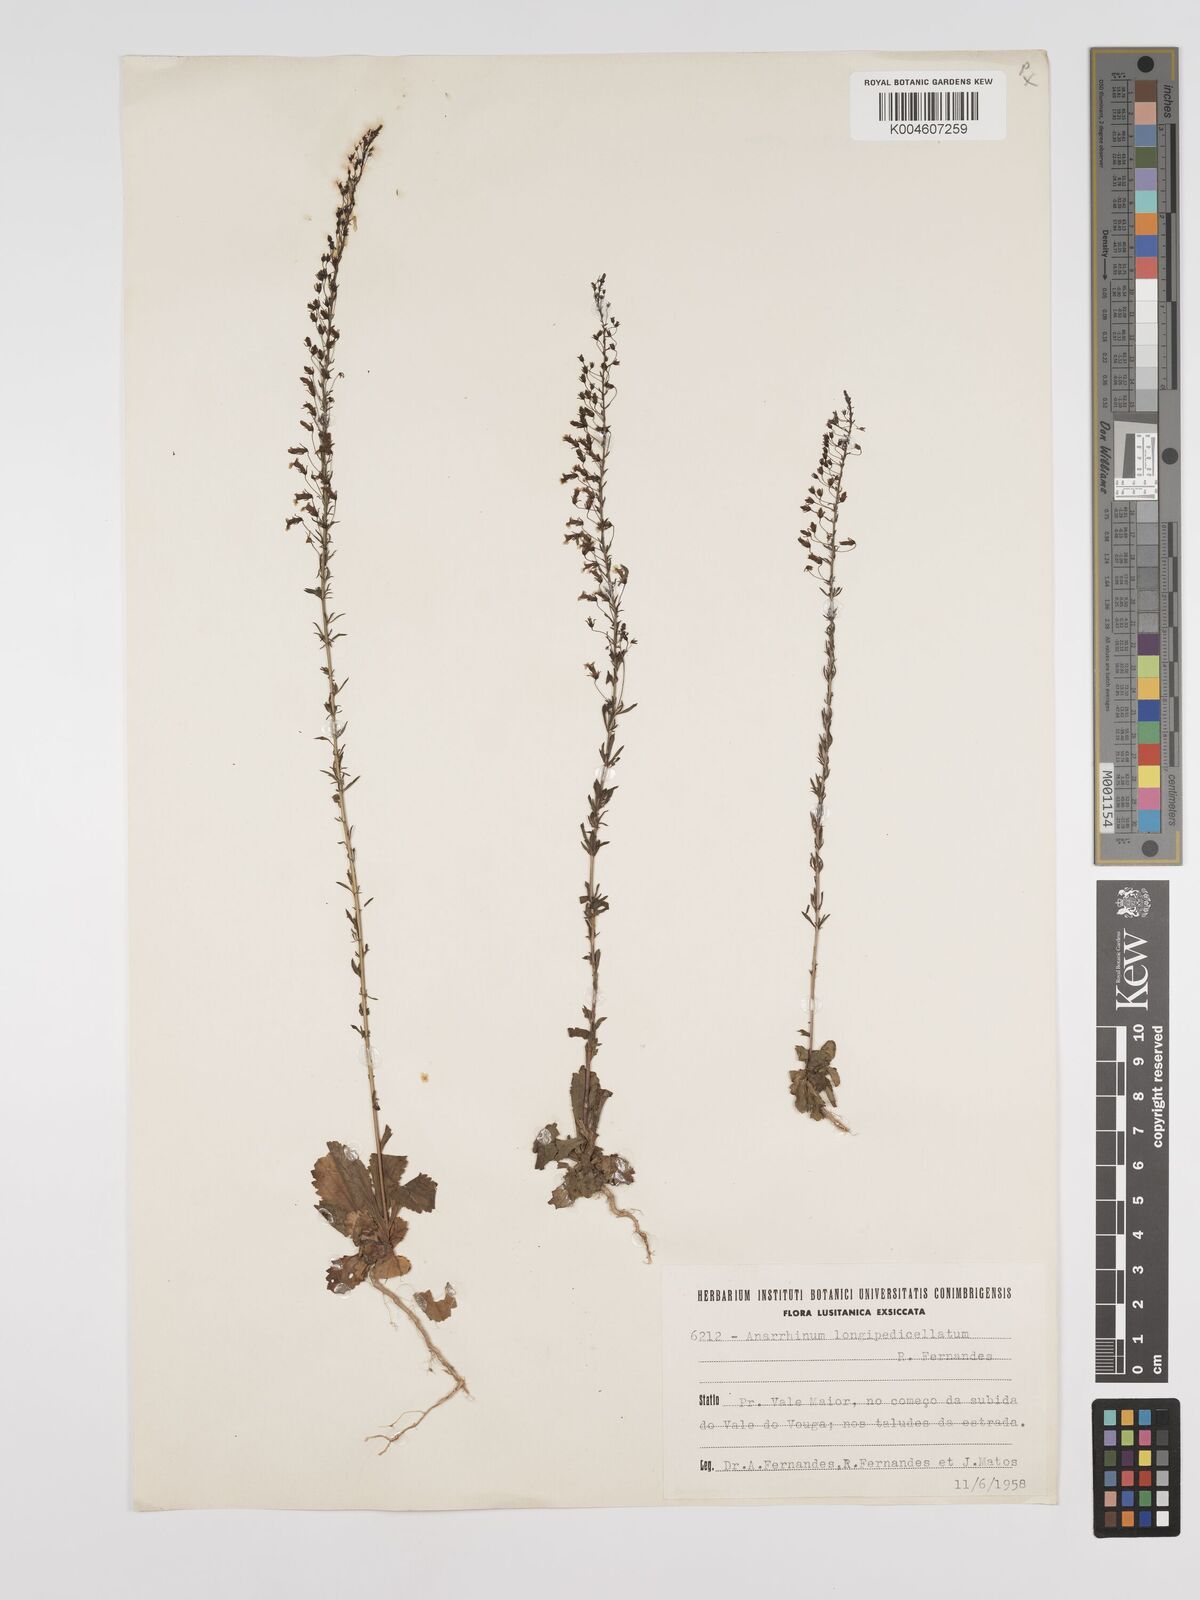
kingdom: Plantae
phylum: Tracheophyta
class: Magnoliopsida
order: Lamiales
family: Plantaginaceae
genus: Anarrhinum
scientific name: Anarrhinum longipedicellatum
